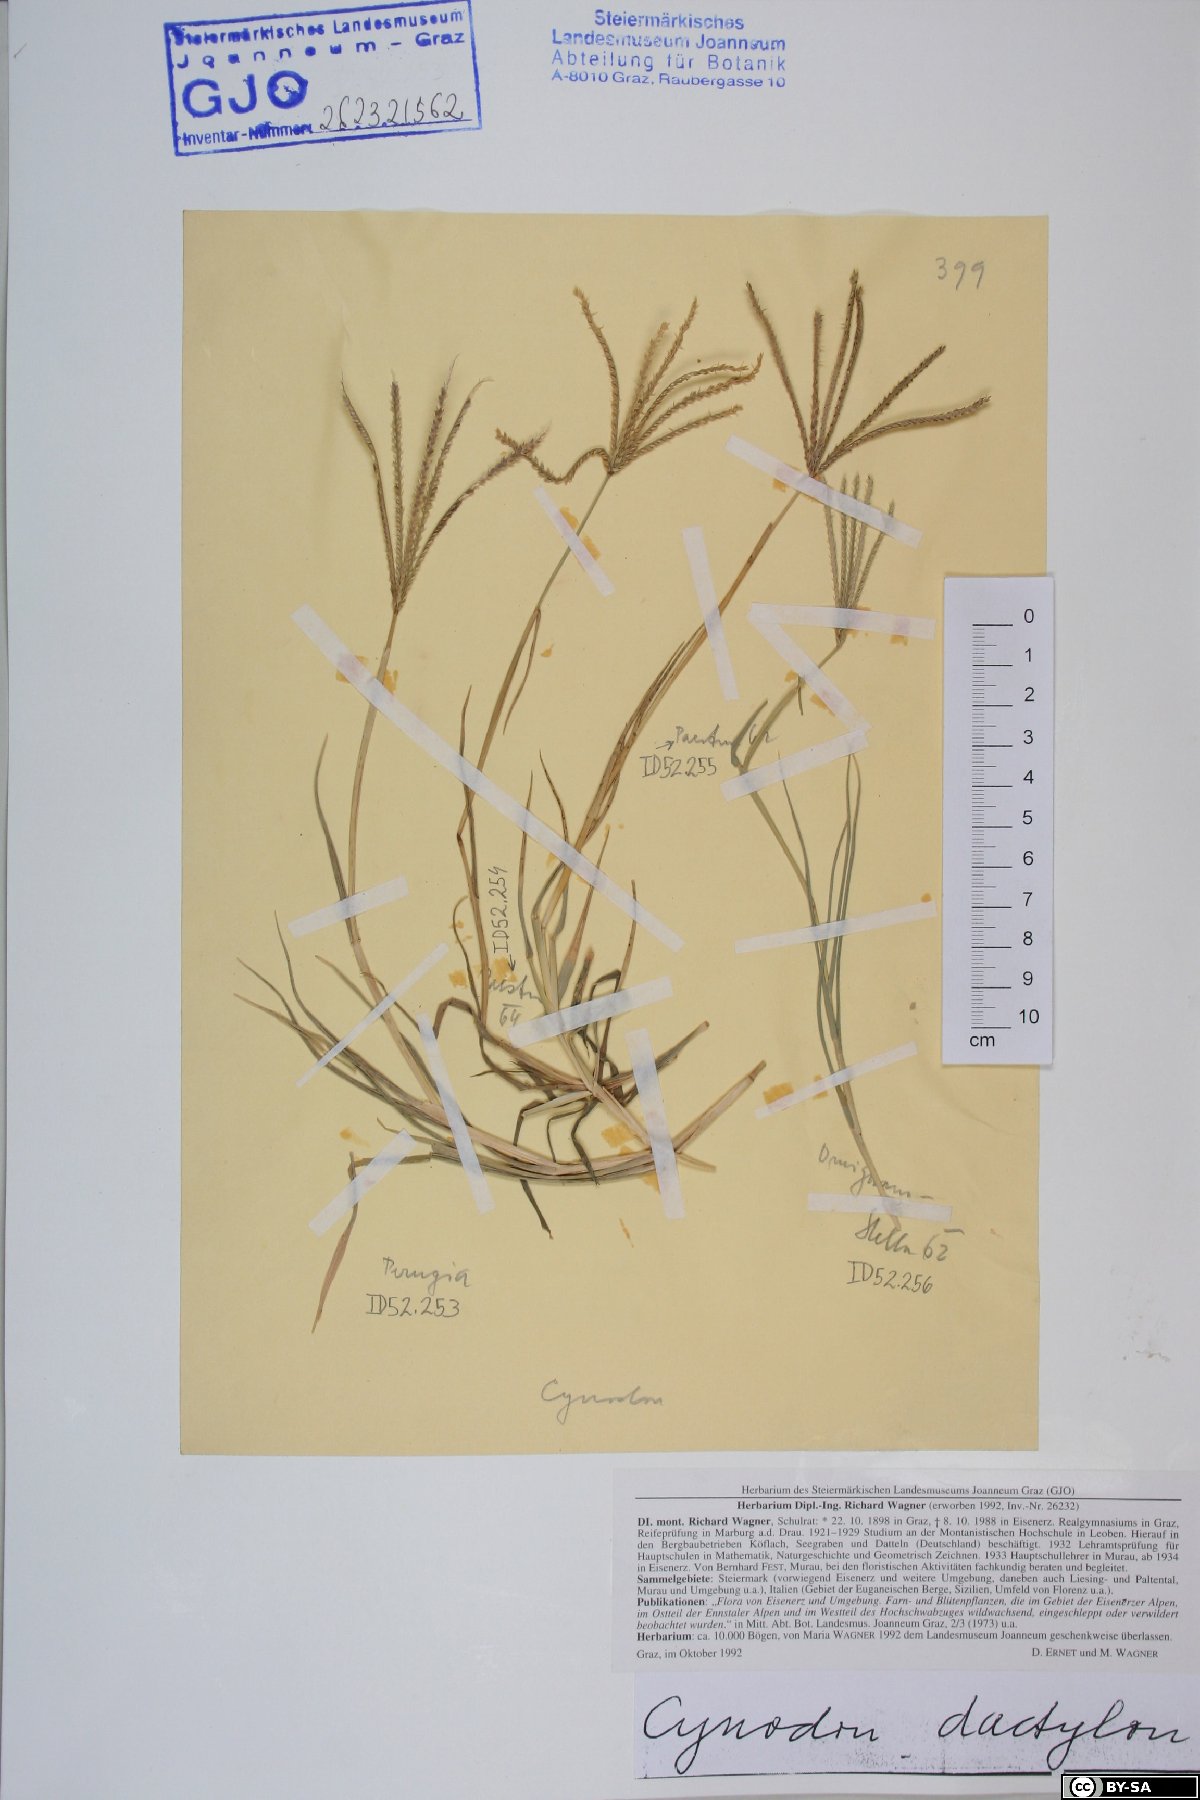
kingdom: Plantae
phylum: Tracheophyta
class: Liliopsida
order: Poales
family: Poaceae
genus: Cynodon
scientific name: Cynodon dactylon
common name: Bermuda grass
